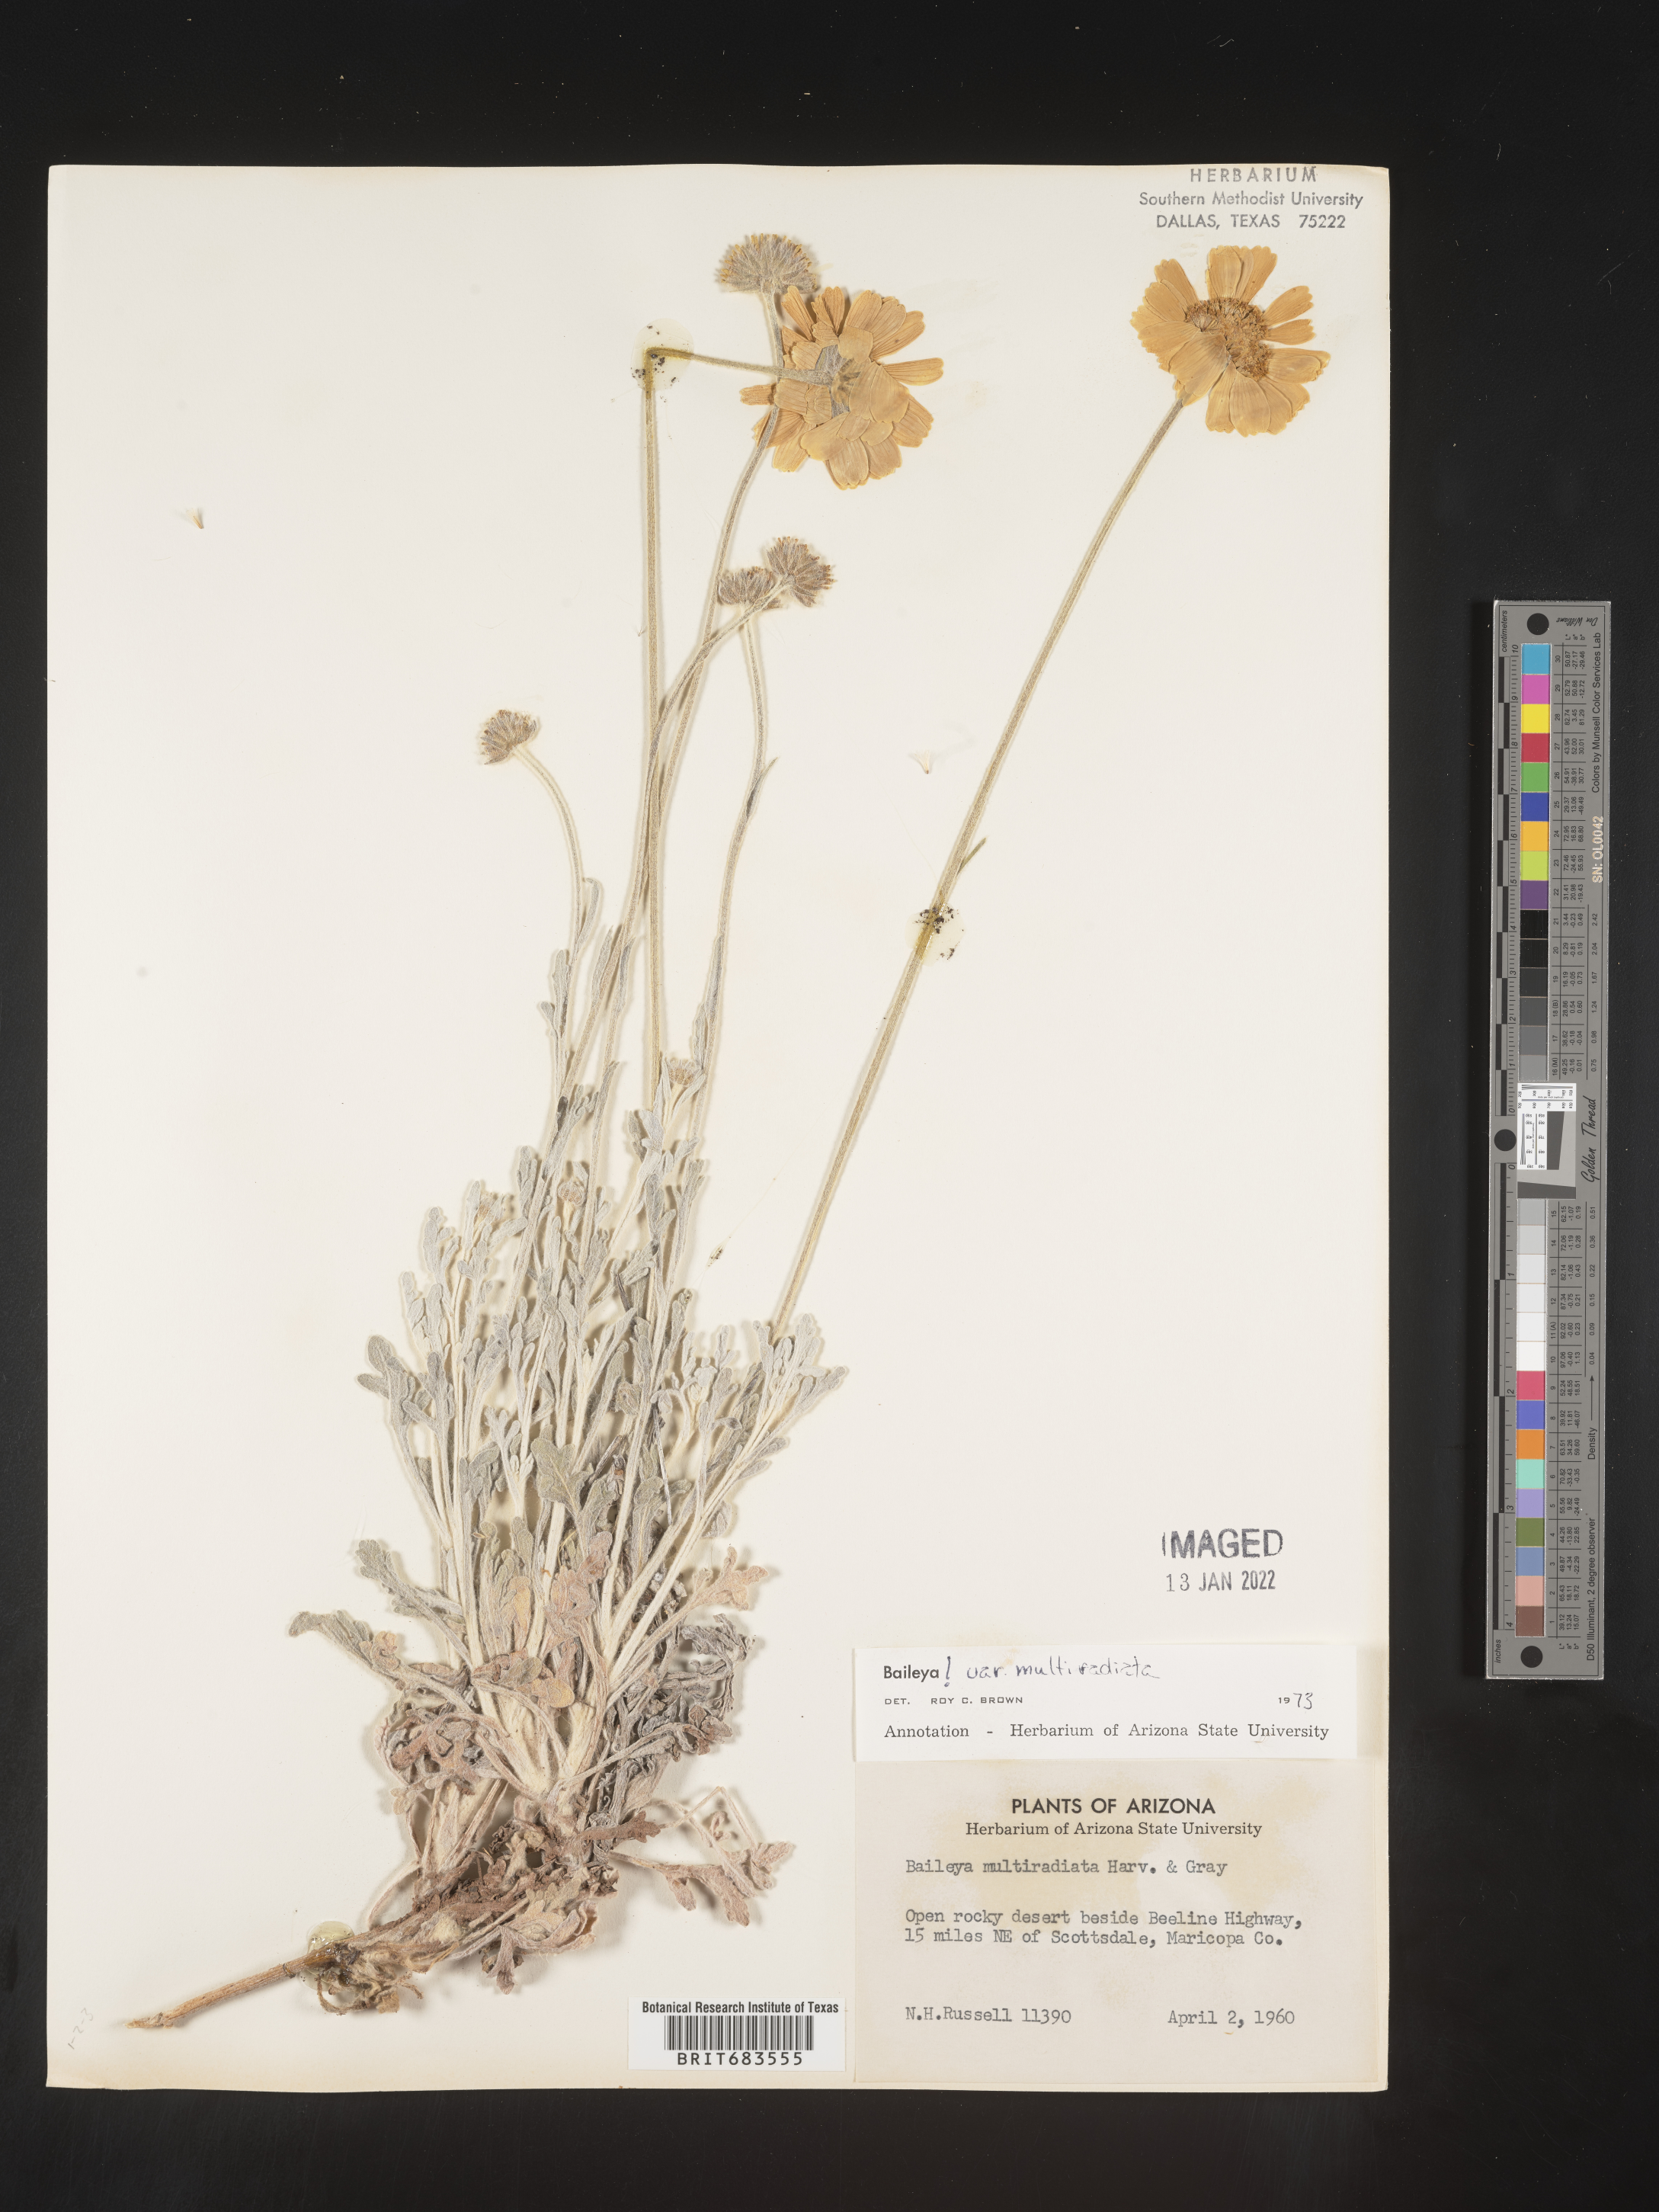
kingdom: Plantae
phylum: Tracheophyta
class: Magnoliopsida
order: Asterales
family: Asteraceae
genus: Baileya
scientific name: Baileya multiradiata
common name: Desert-marigold
